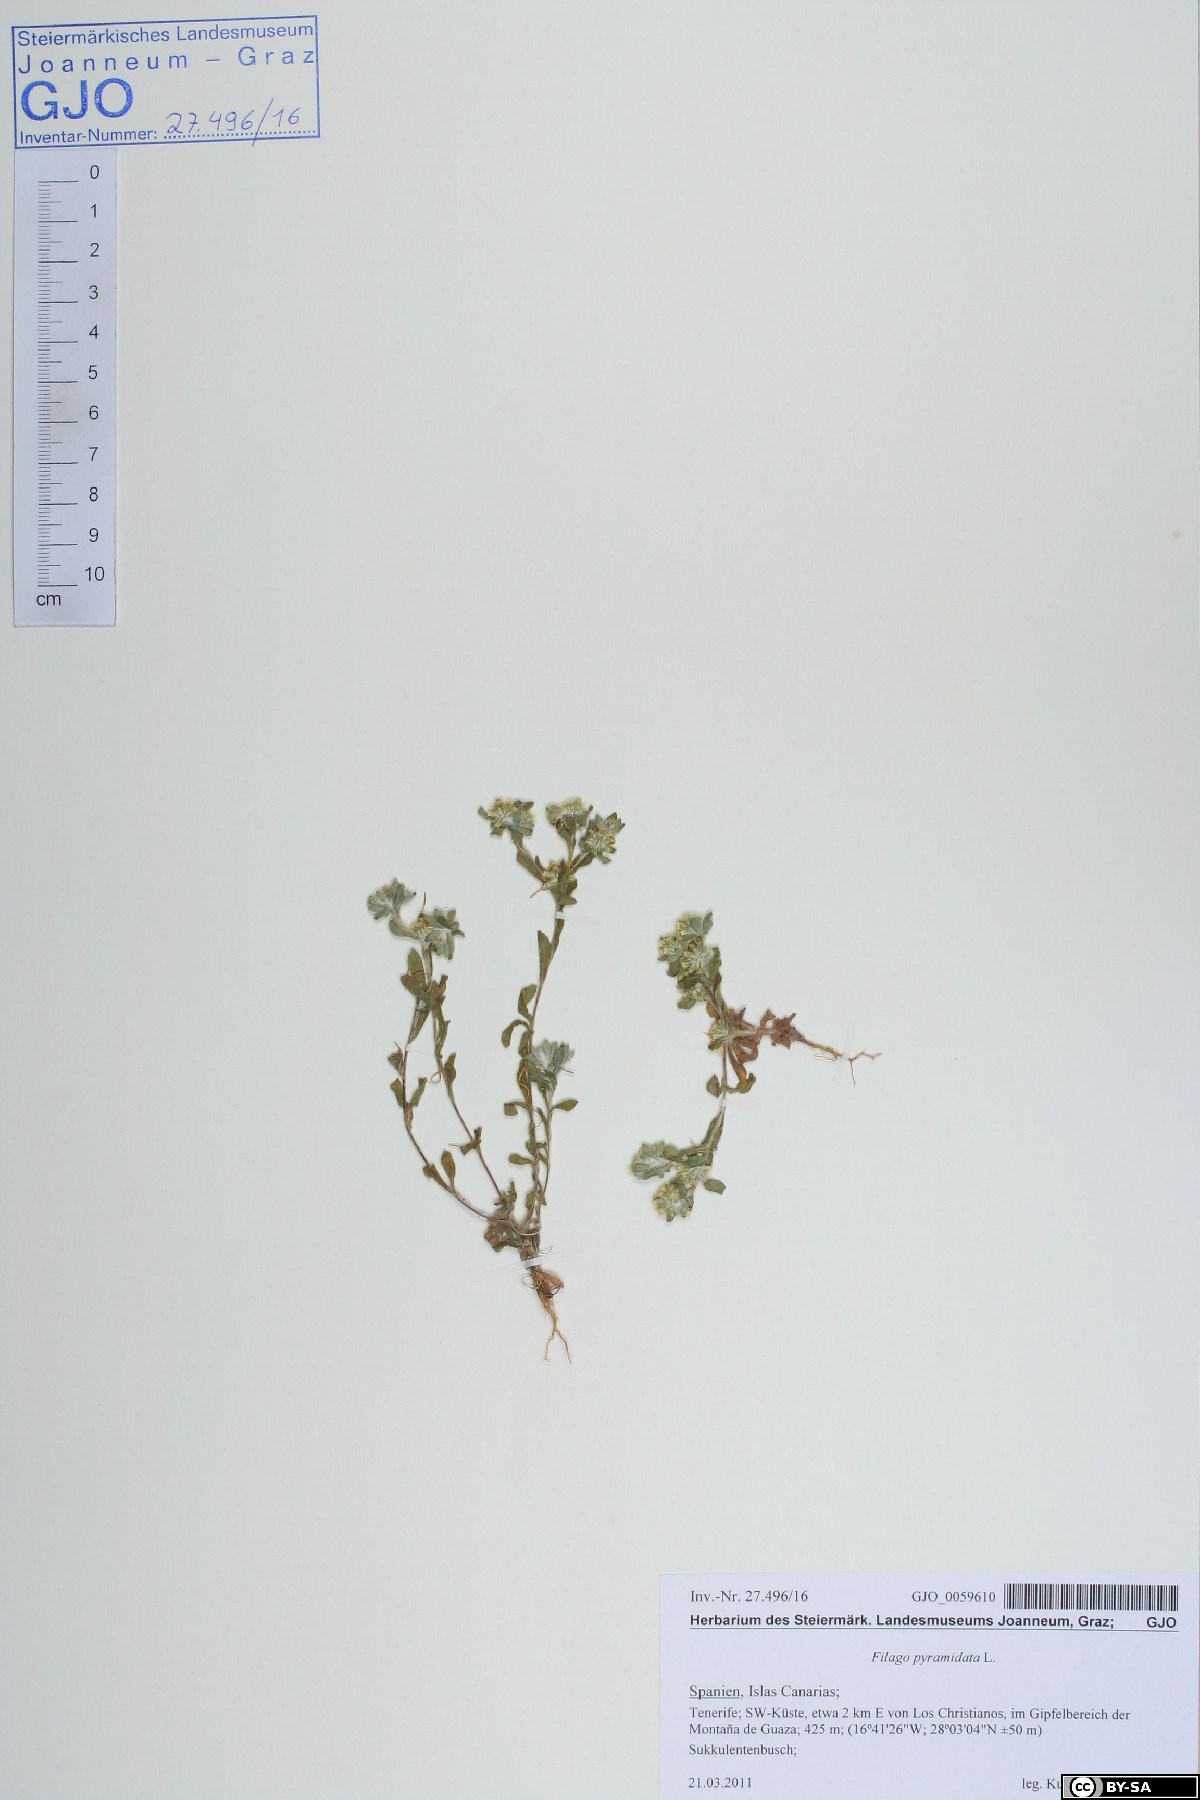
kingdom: Plantae
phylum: Tracheophyta
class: Magnoliopsida
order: Asterales
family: Asteraceae
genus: Filago
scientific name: Filago pyramidata
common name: Broad-leaved cudweed
